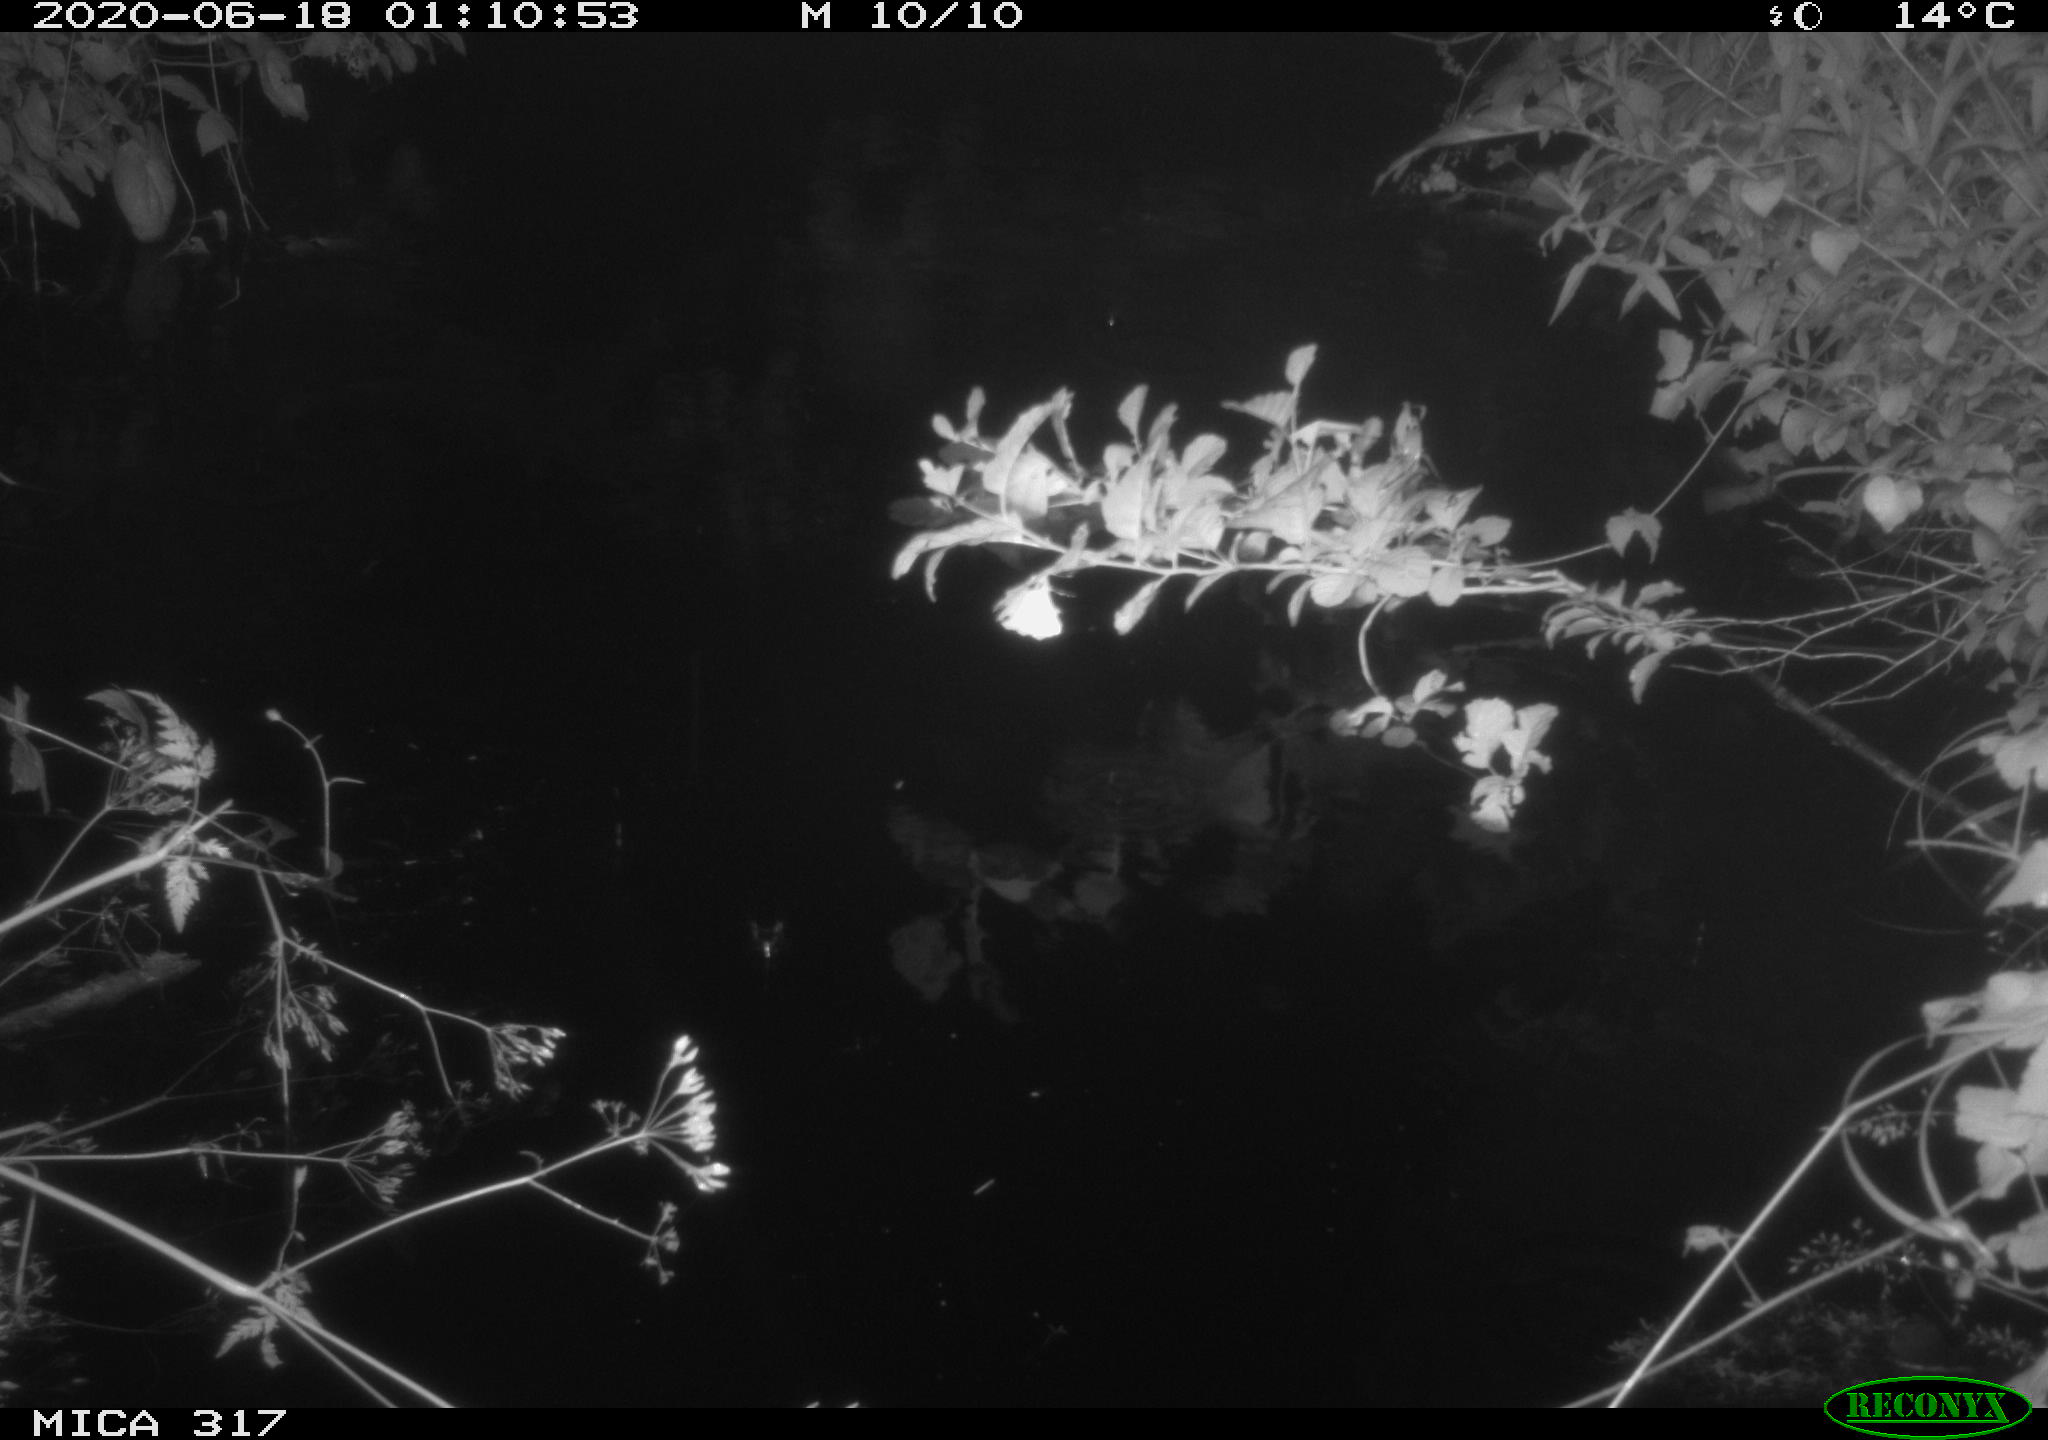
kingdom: Animalia
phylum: Chordata
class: Aves
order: Anseriformes
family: Anatidae
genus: Anas
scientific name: Anas platyrhynchos
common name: Mallard
